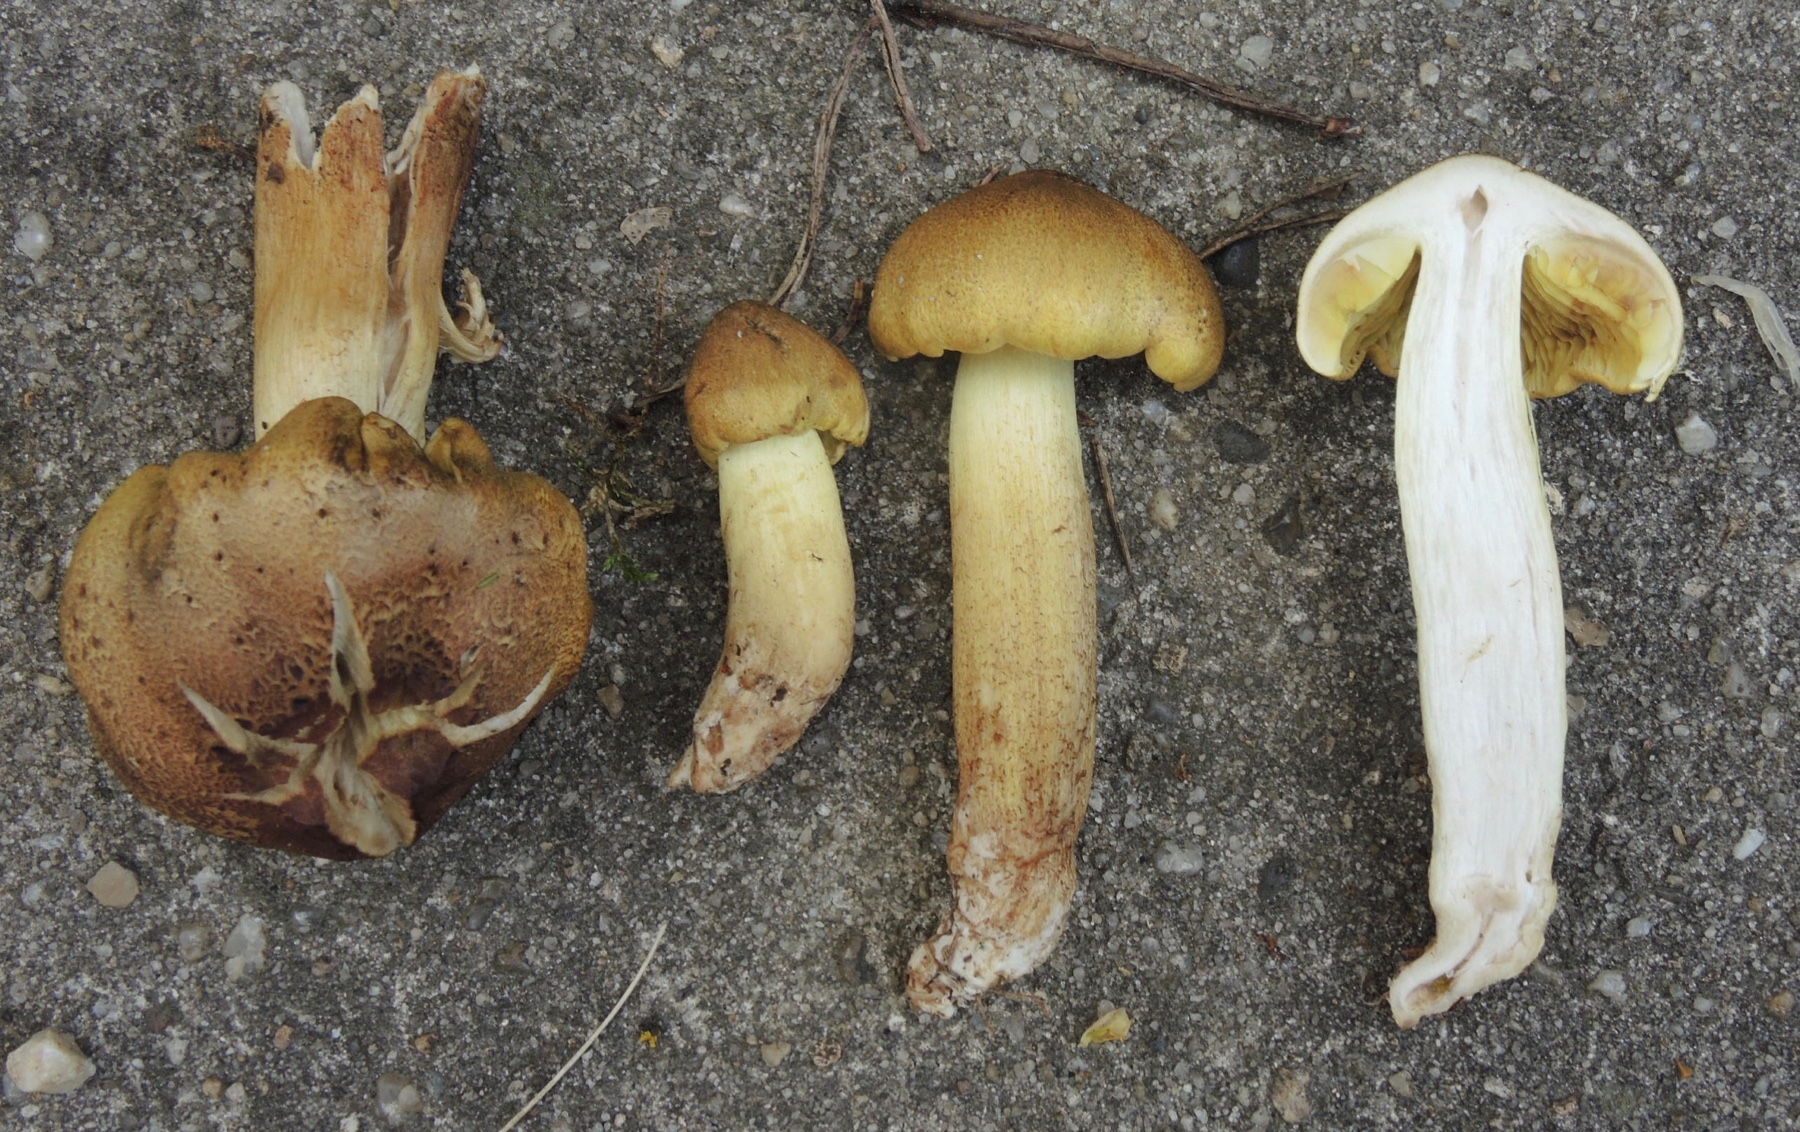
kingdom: Fungi
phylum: Basidiomycota
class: Agaricomycetes
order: Agaricales
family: Tricholomataceae
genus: Tricholoma
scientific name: Tricholoma aestuans
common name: kegle-ridderhat
